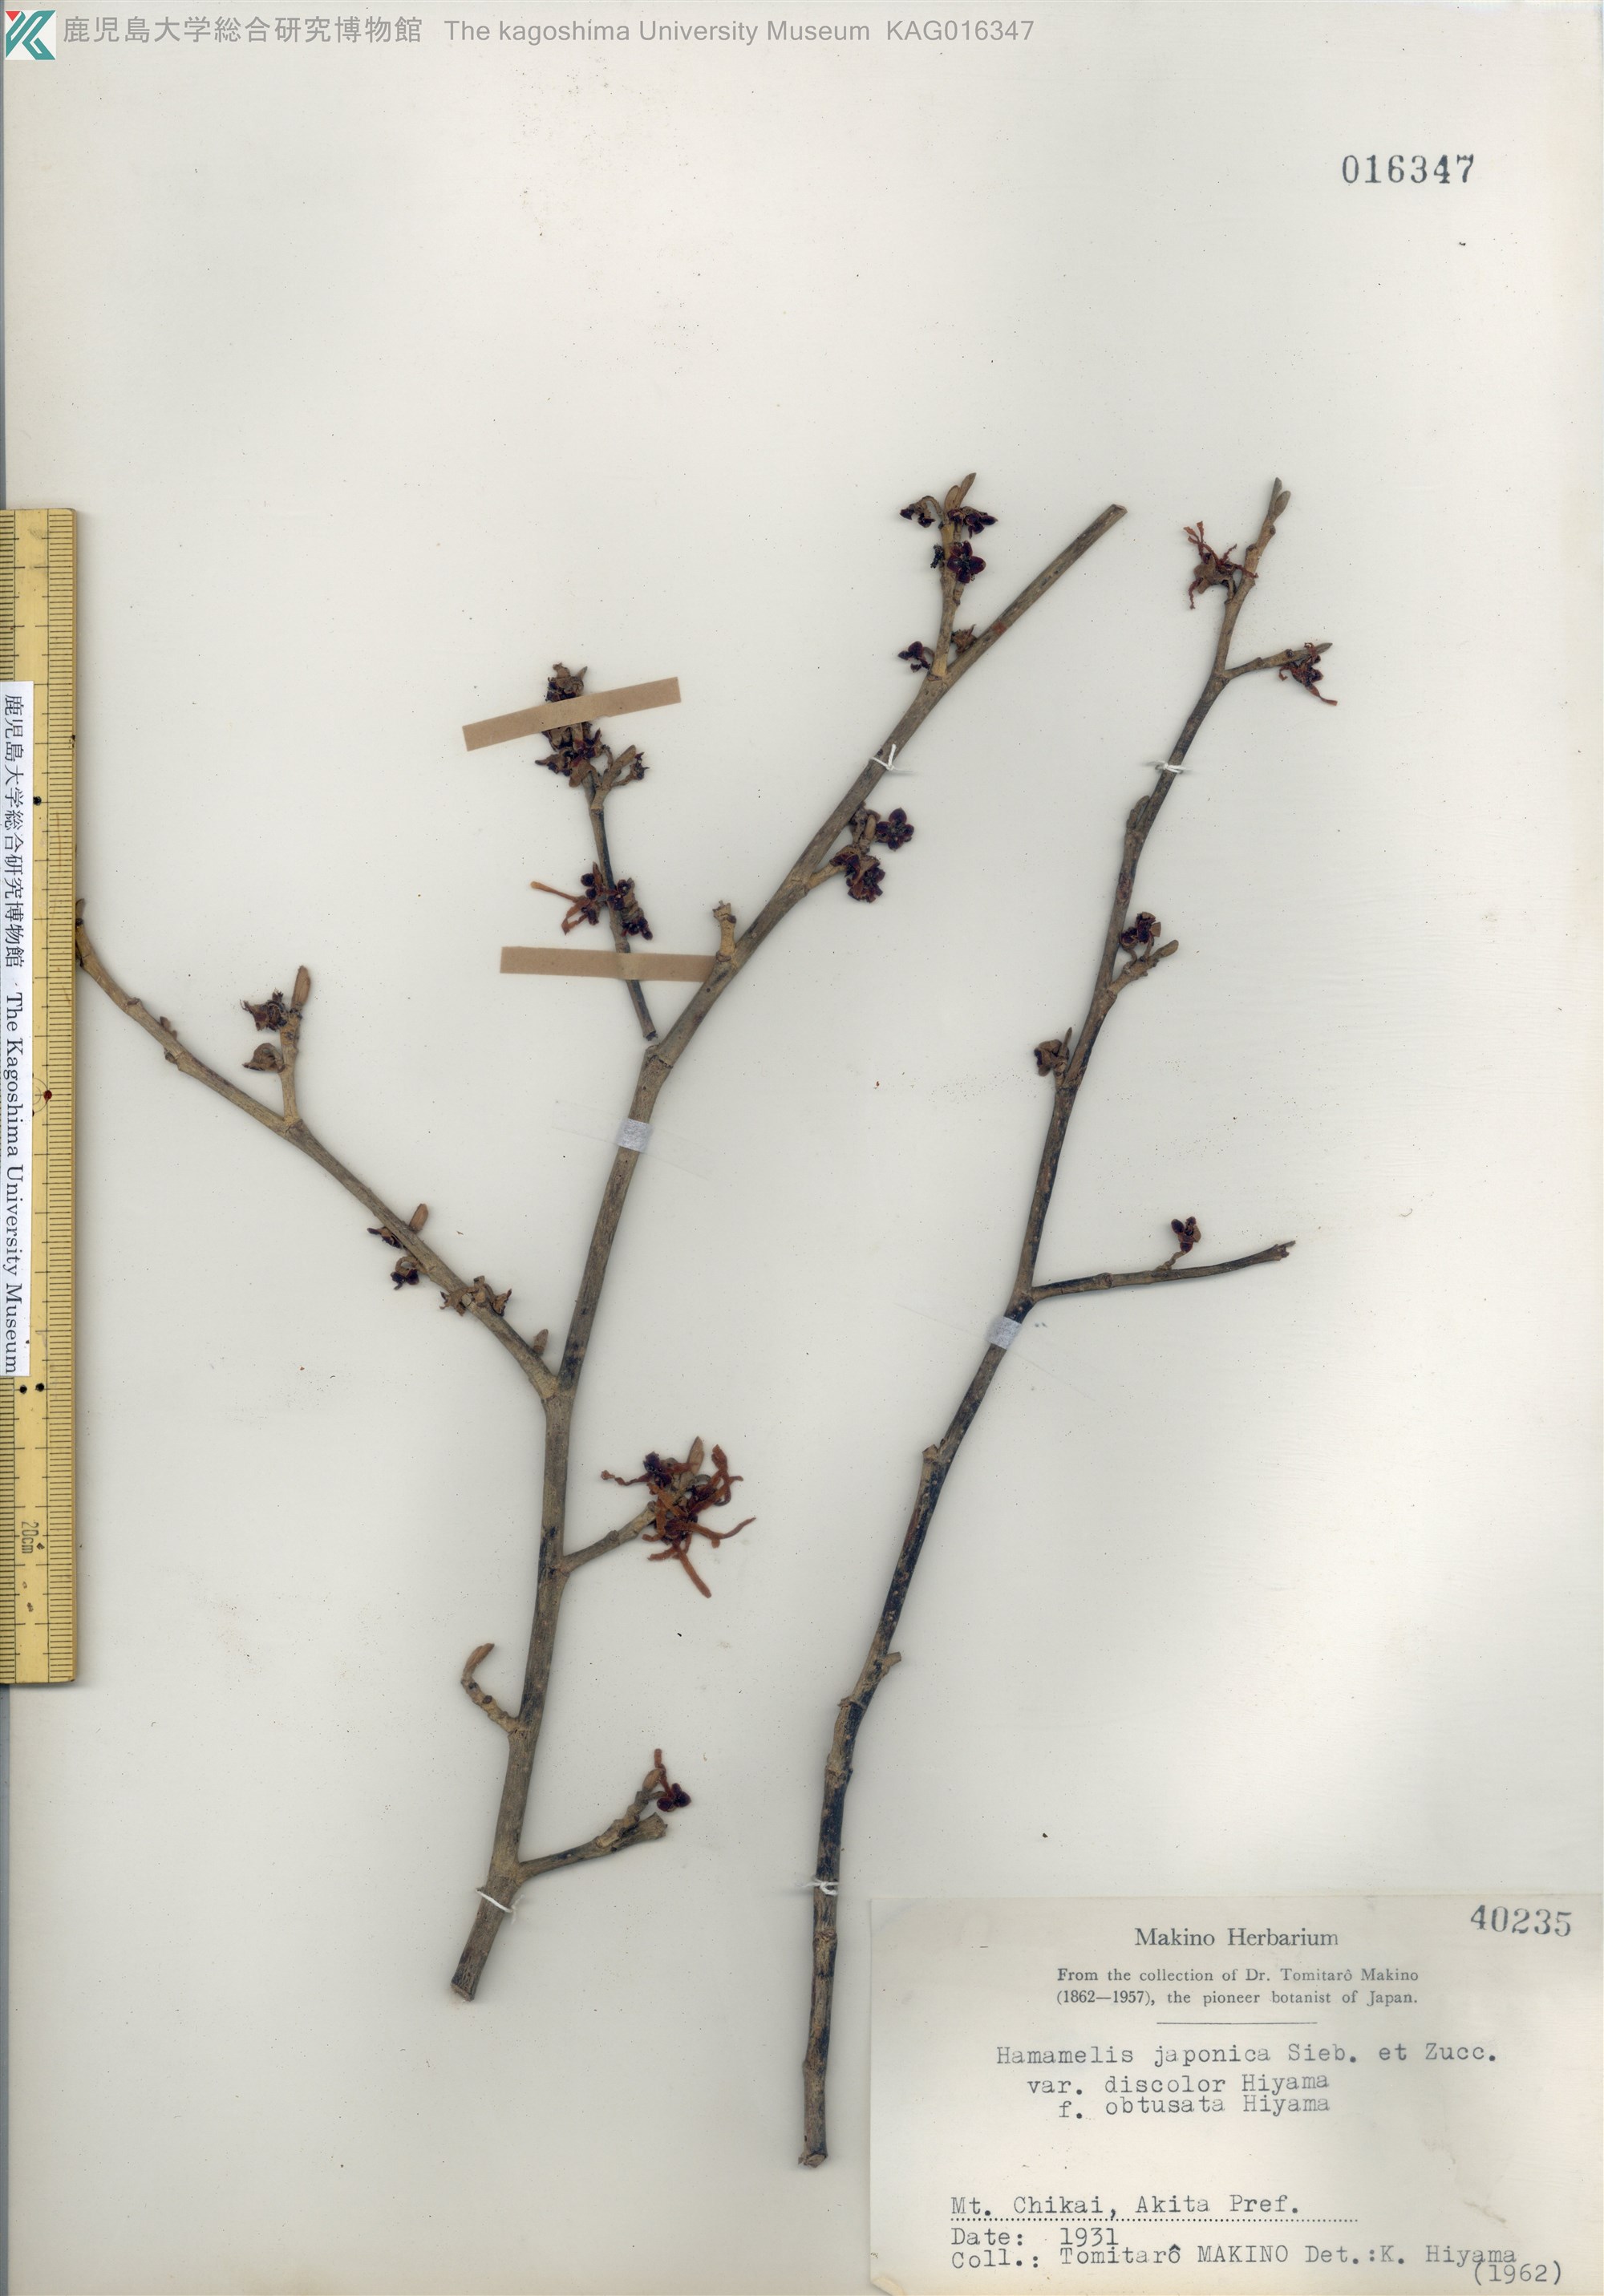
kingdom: Plantae
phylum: Tracheophyta
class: Magnoliopsida
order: Saxifragales
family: Hamamelidaceae
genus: Hamamelis
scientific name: Hamamelis japonica
